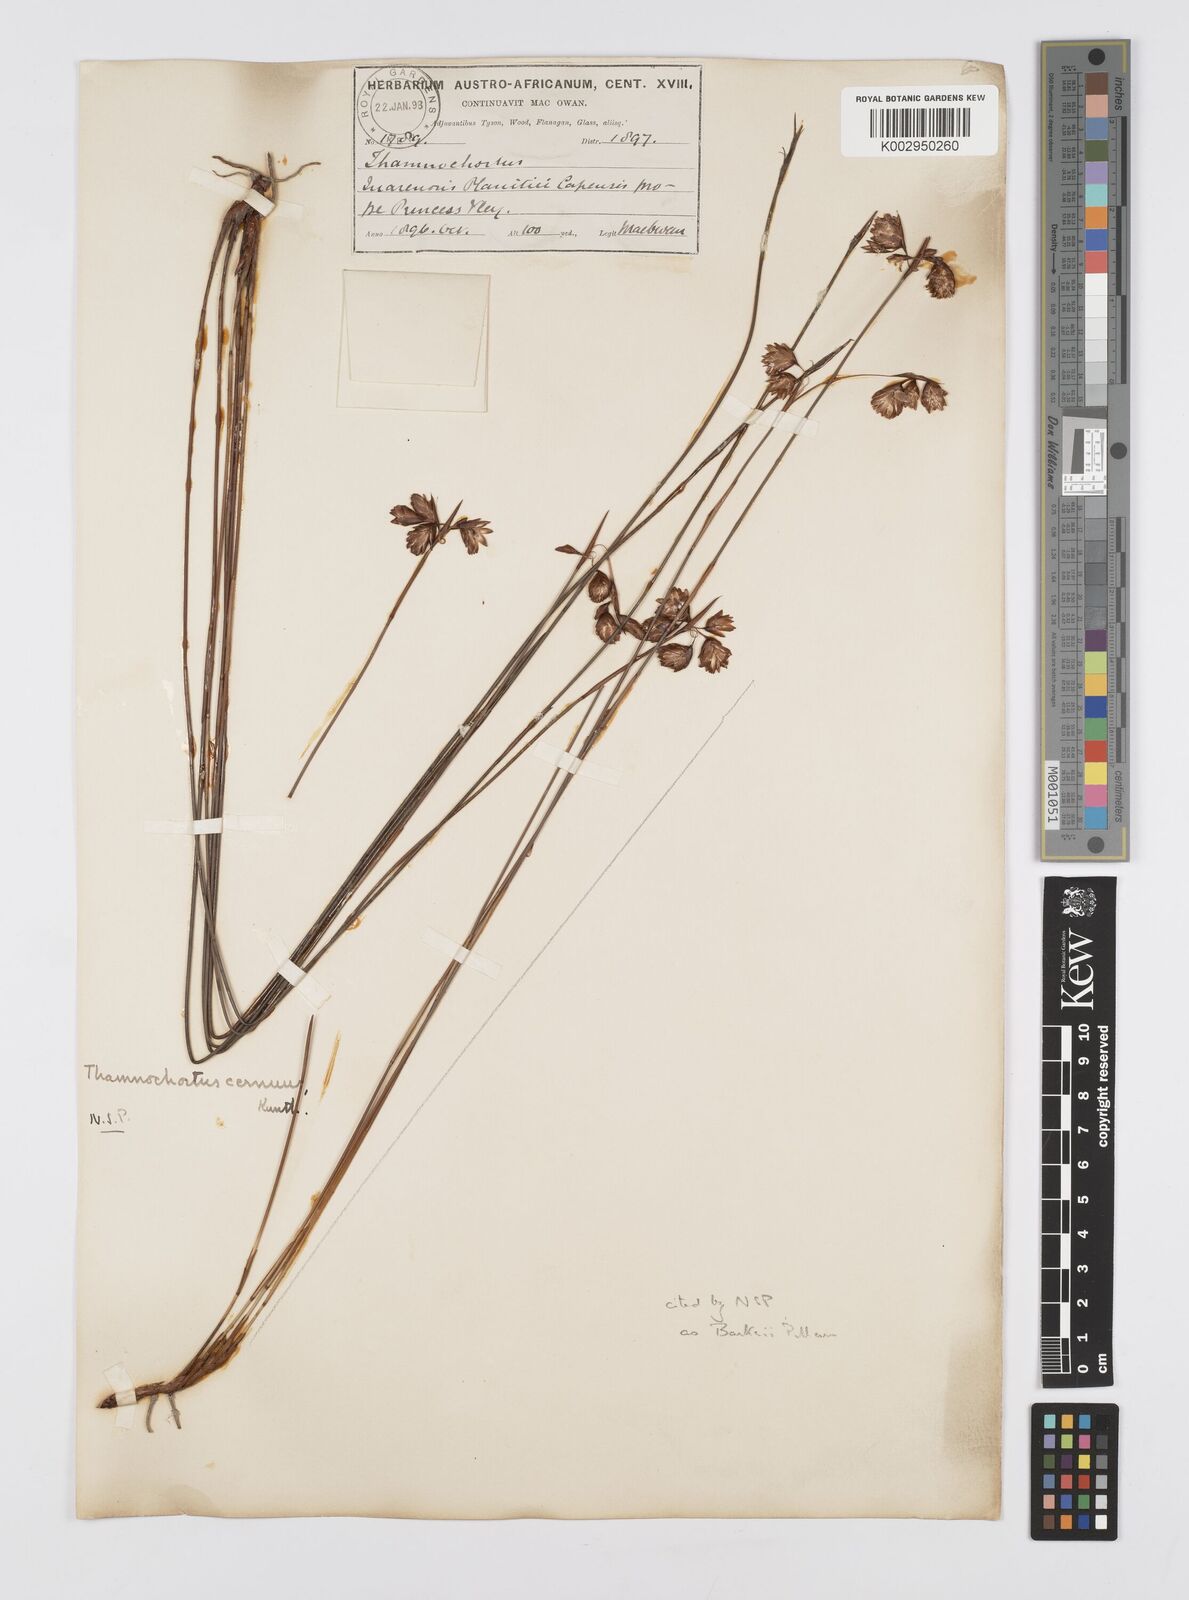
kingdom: Plantae
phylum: Tracheophyta
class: Liliopsida
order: Poales
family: Restionaceae
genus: Staberoha
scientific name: Staberoha banksii
